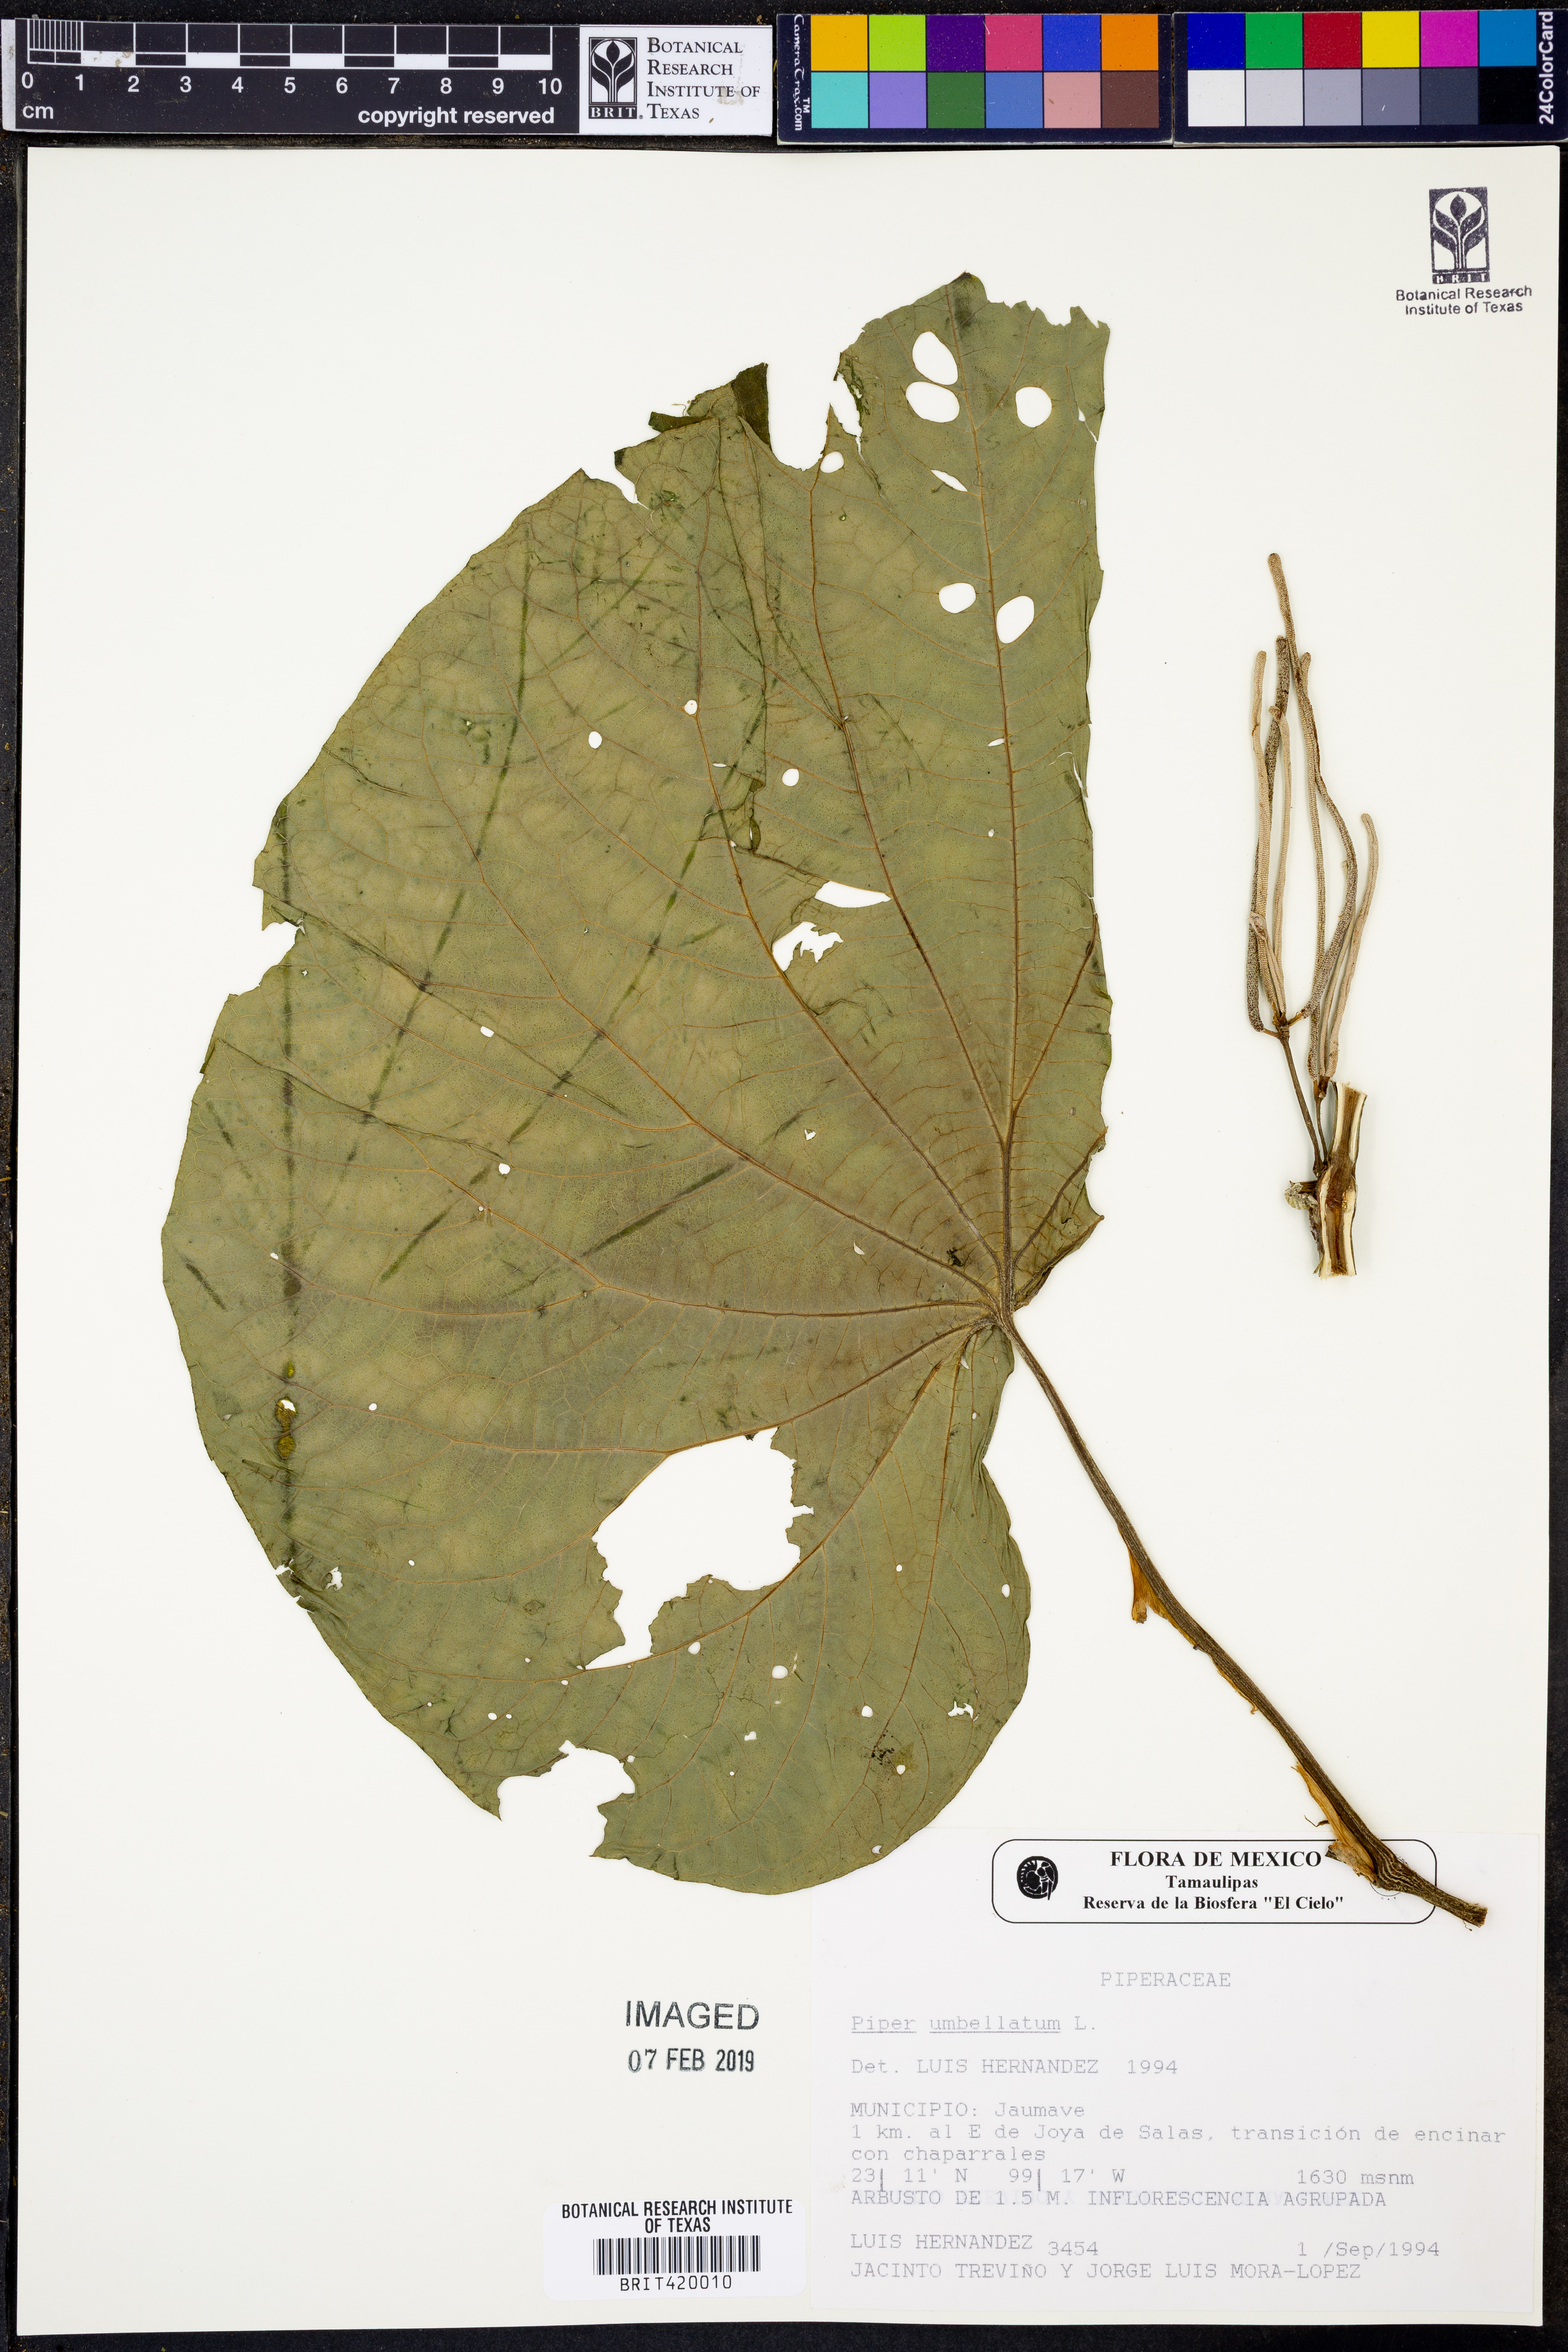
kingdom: Plantae
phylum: Tracheophyta
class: Magnoliopsida
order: Piperales
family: Piperaceae
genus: Piper
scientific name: Piper umbellatum
